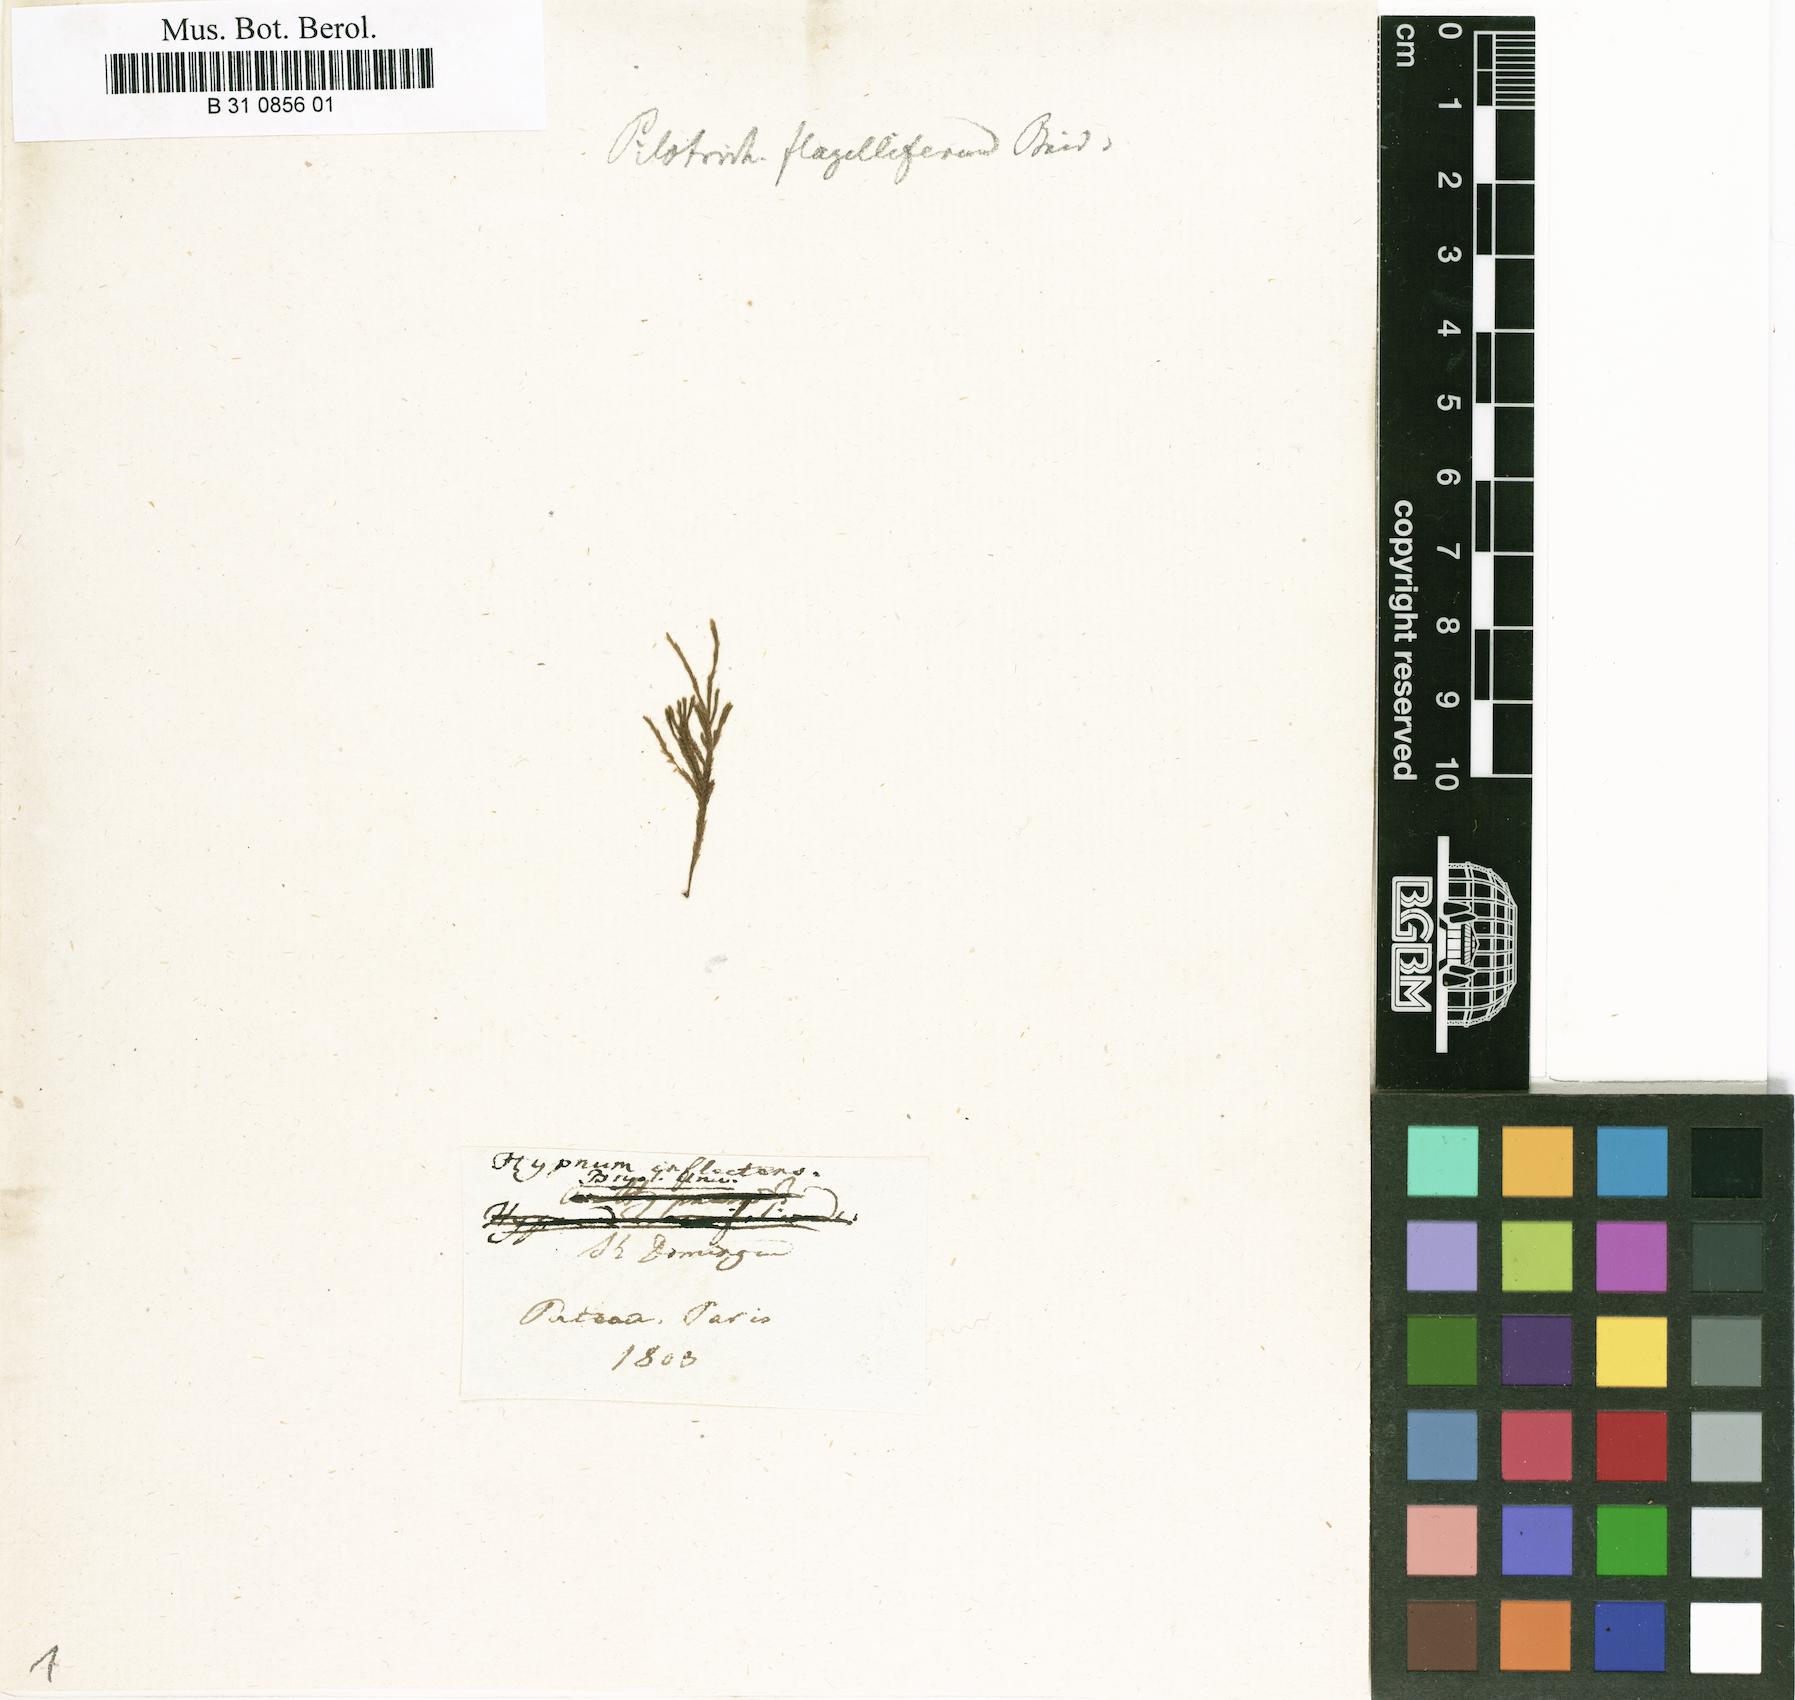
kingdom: Plantae
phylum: Bryophyta
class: Bryopsida
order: Hypnales
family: Hypnaceae
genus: Hypnum
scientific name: Hypnum inflectens
